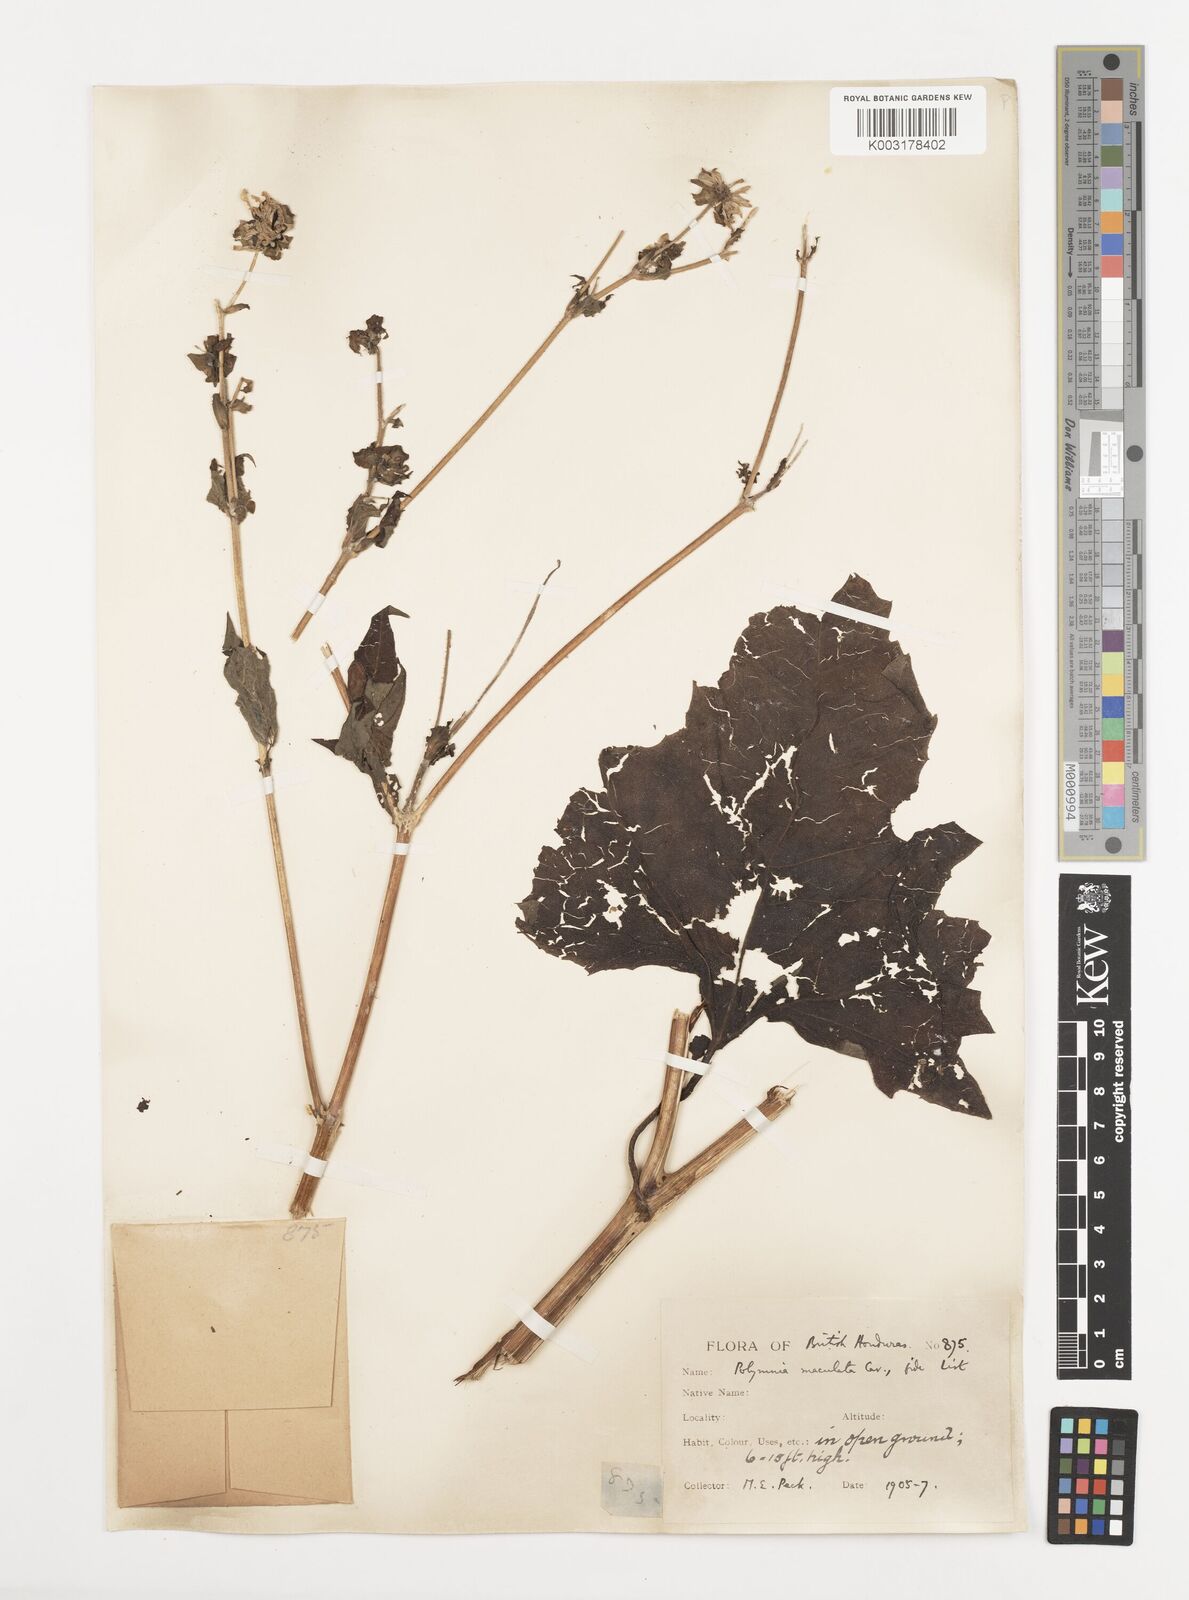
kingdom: Plantae
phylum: Tracheophyta
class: Magnoliopsida
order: Asterales
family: Asteraceae
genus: Smallanthus
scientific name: Smallanthus maculatus
